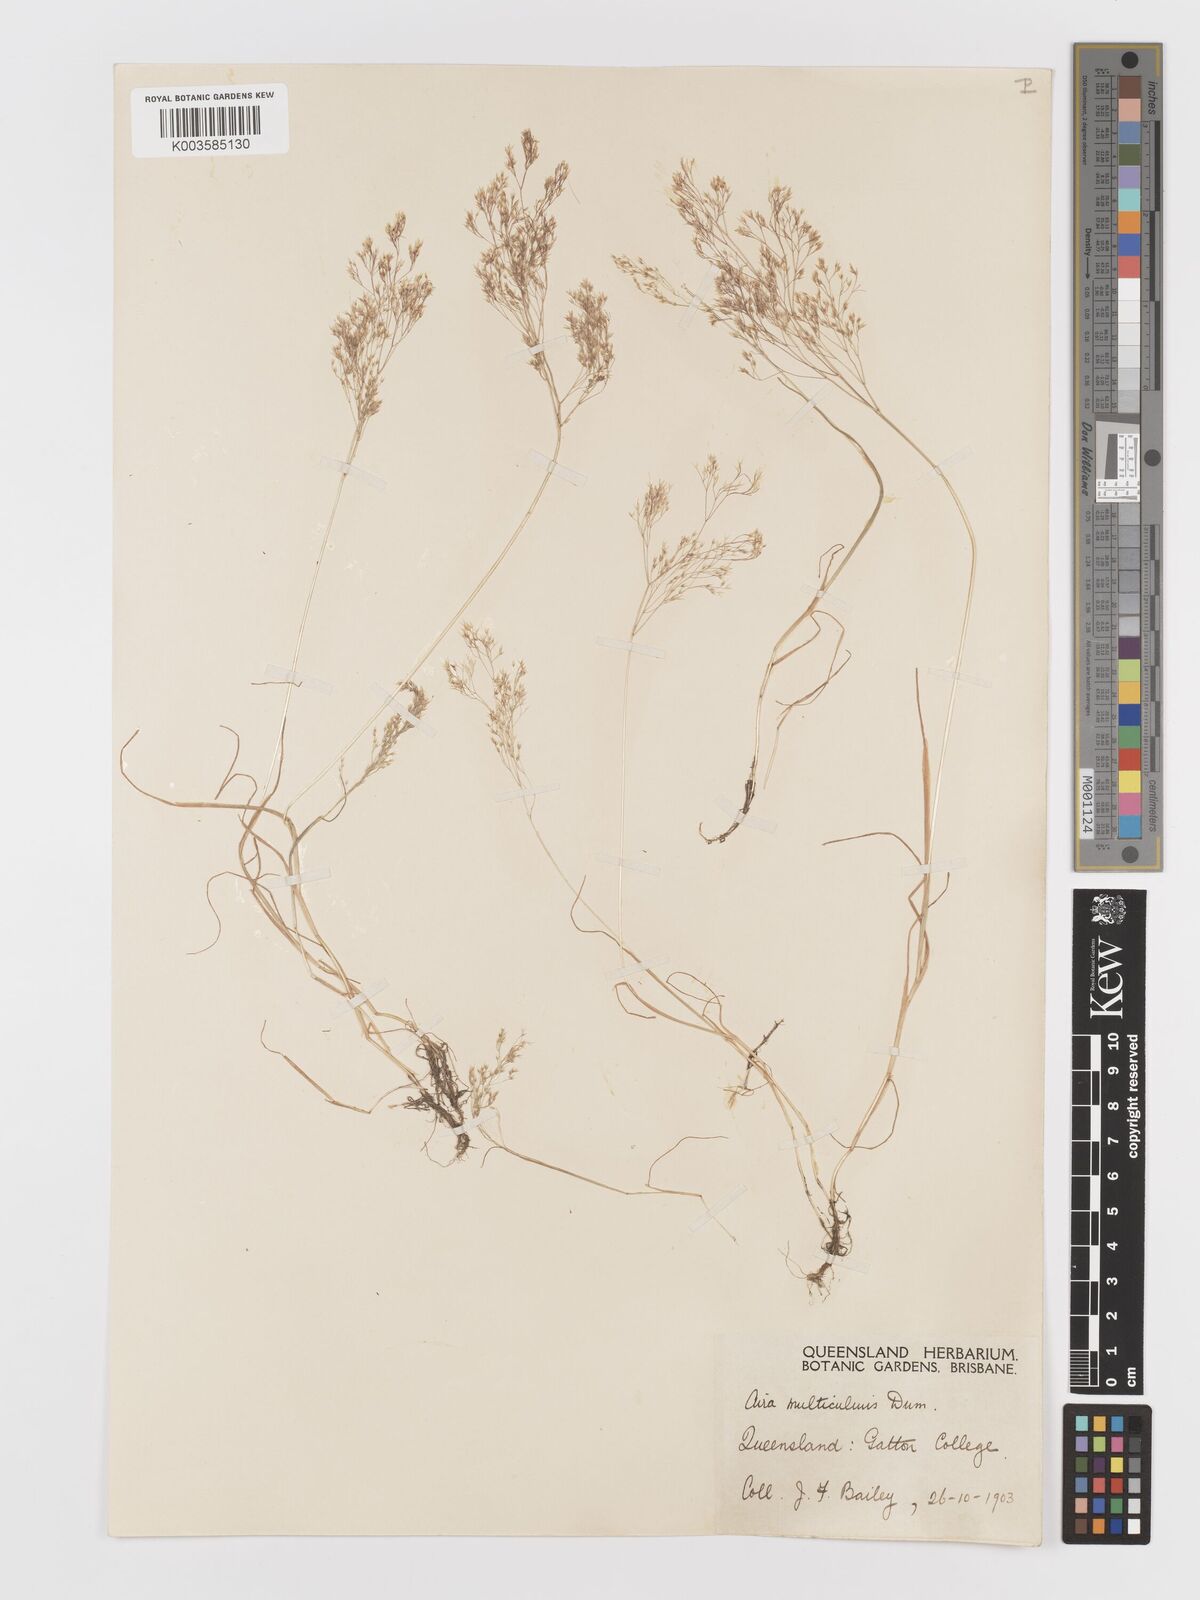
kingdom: Plantae
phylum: Tracheophyta
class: Liliopsida
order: Poales
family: Poaceae
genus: Aira
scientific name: Aira cupaniana
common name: Silver hairgrass
